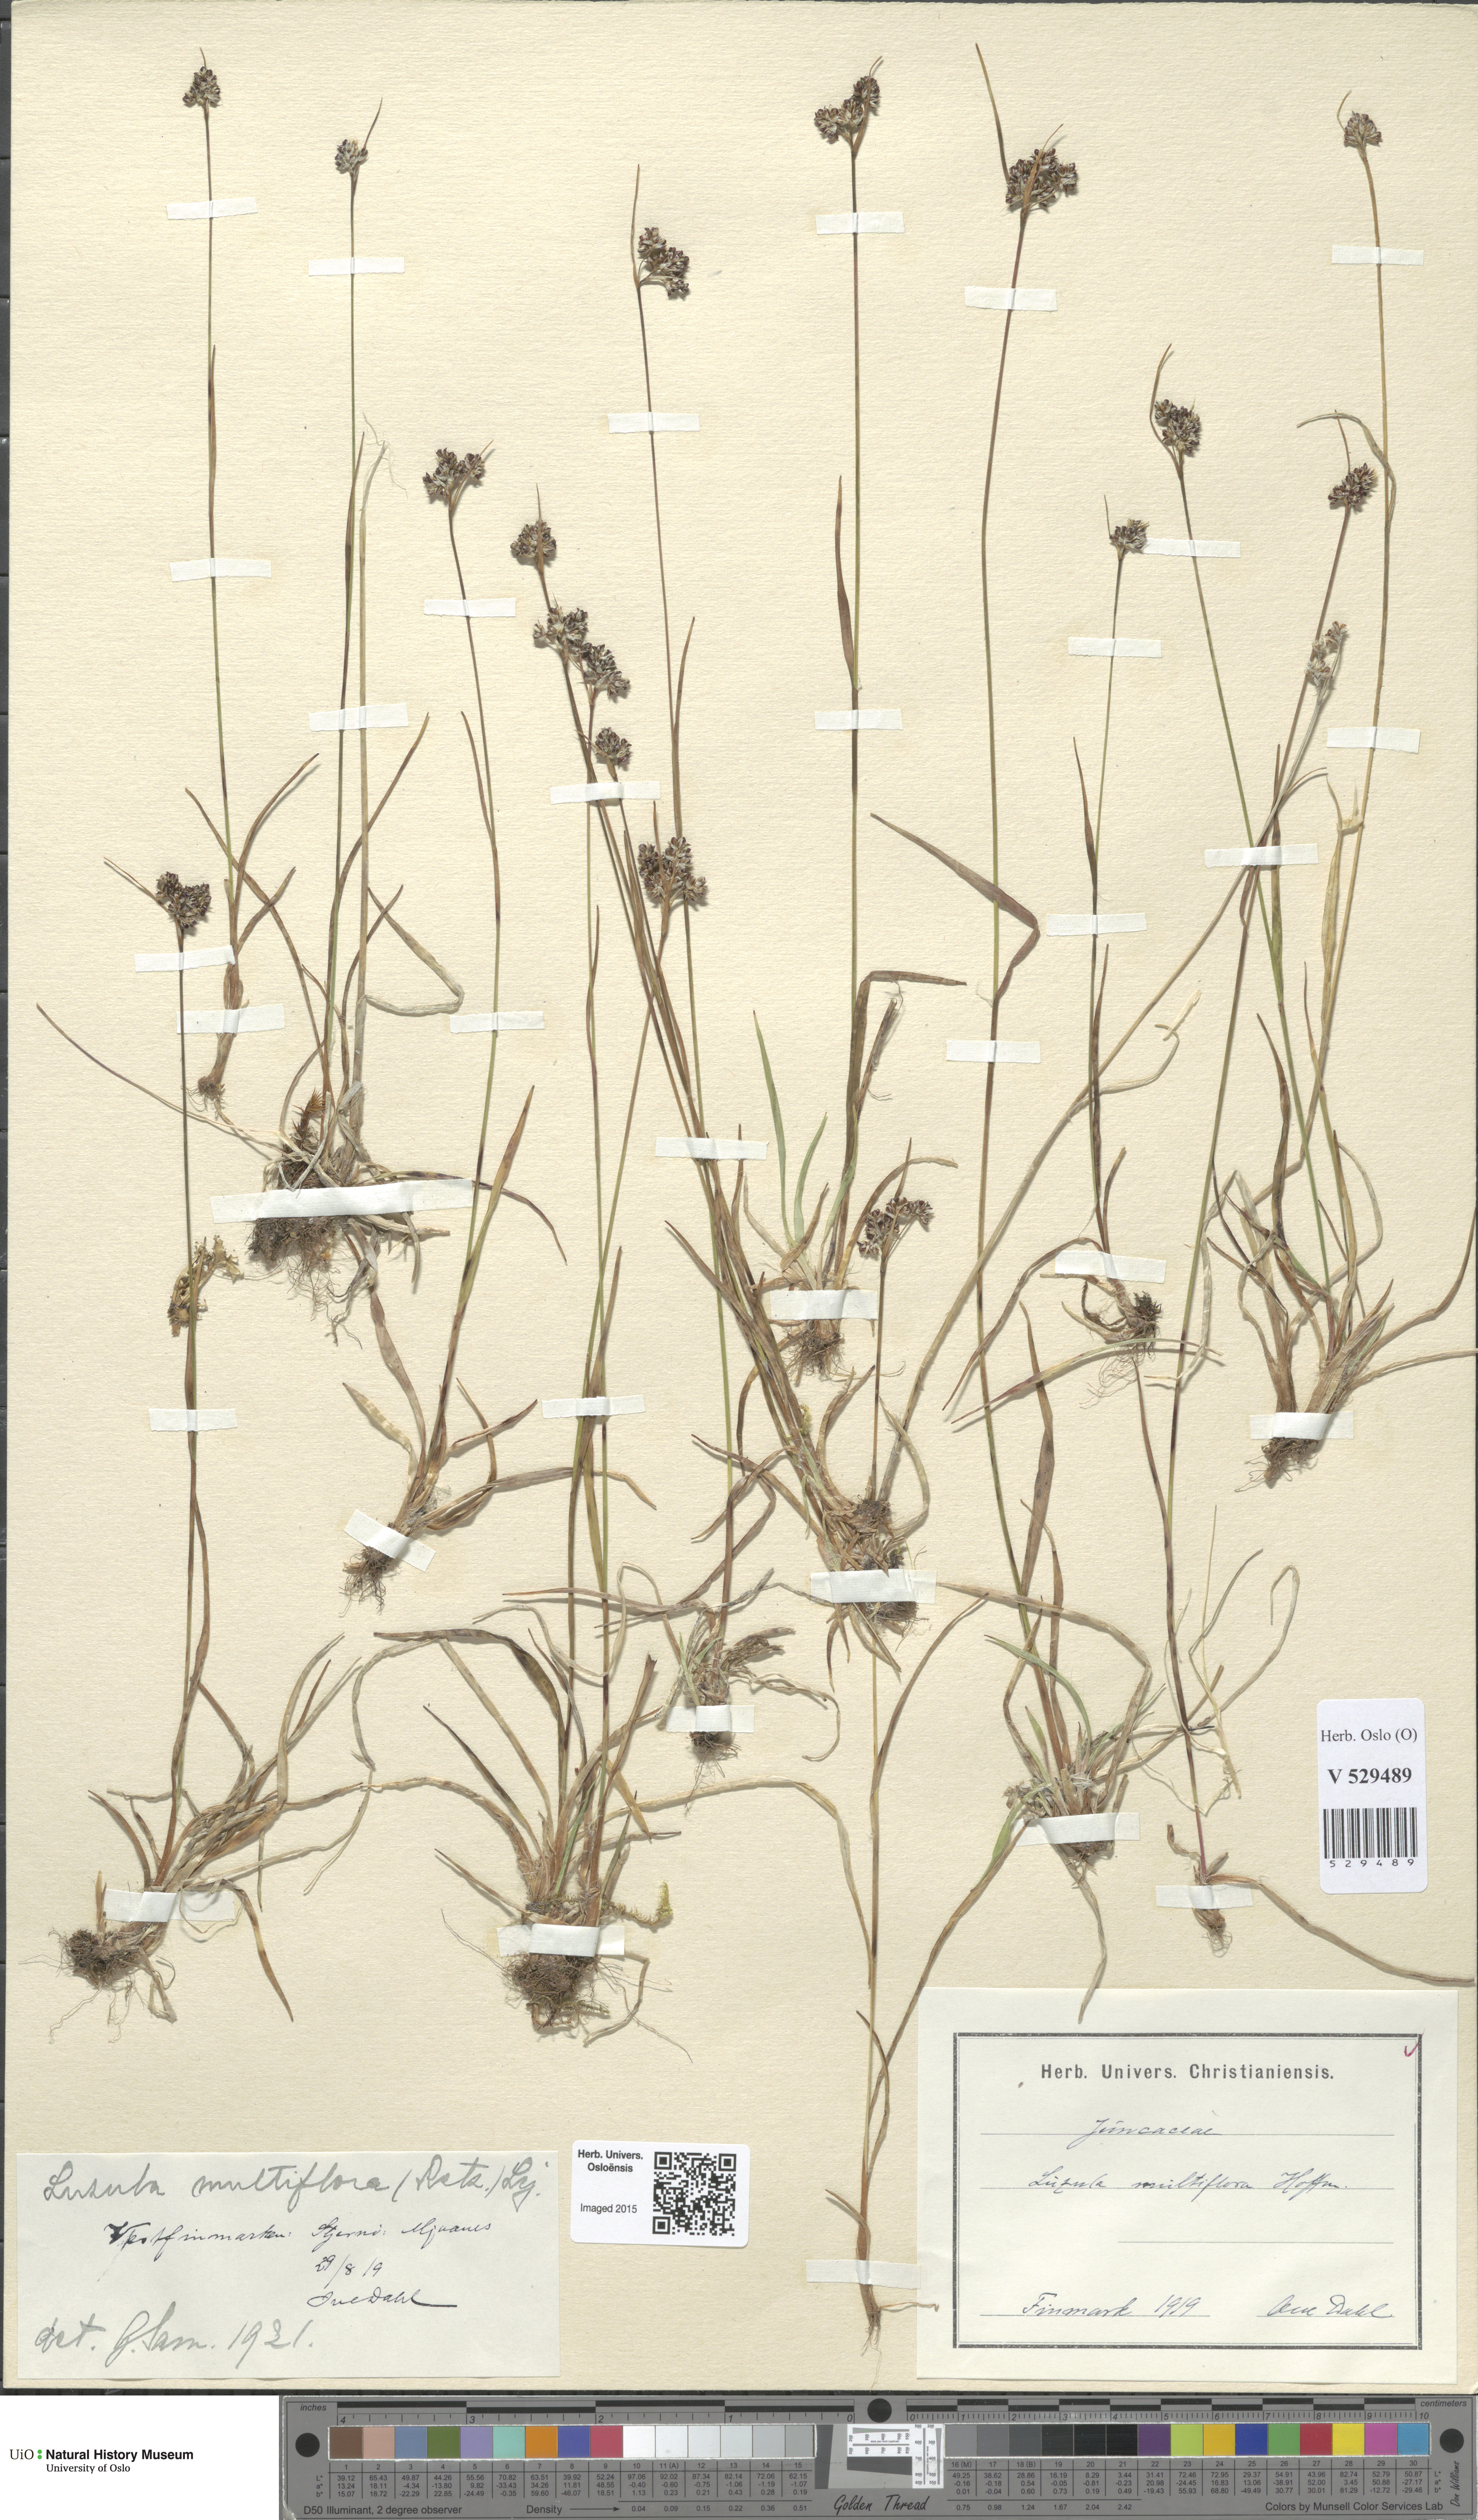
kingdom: Plantae
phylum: Tracheophyta
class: Liliopsida
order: Poales
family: Juncaceae
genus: Luzula
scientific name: Luzula multiflora
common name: Heath wood-rush
